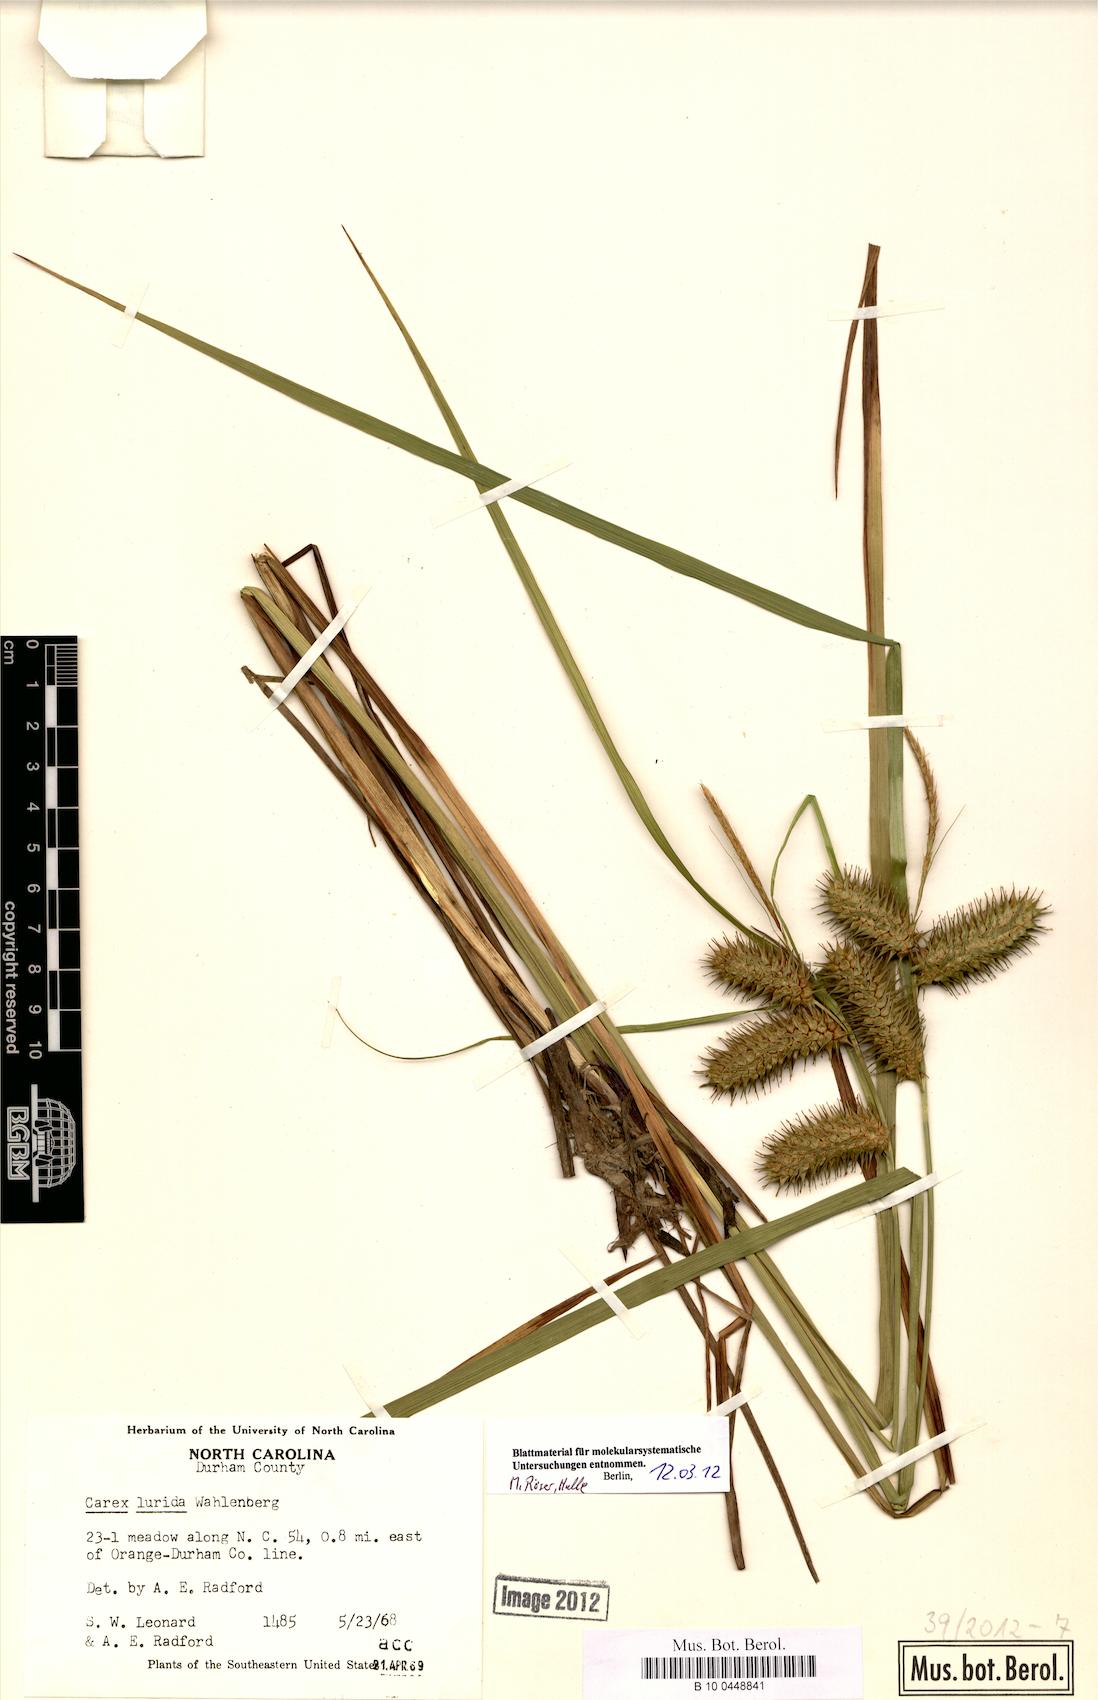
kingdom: Plantae
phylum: Tracheophyta
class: Liliopsida
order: Poales
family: Cyperaceae
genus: Carex
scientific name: Carex lurida
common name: Sallow sedge
